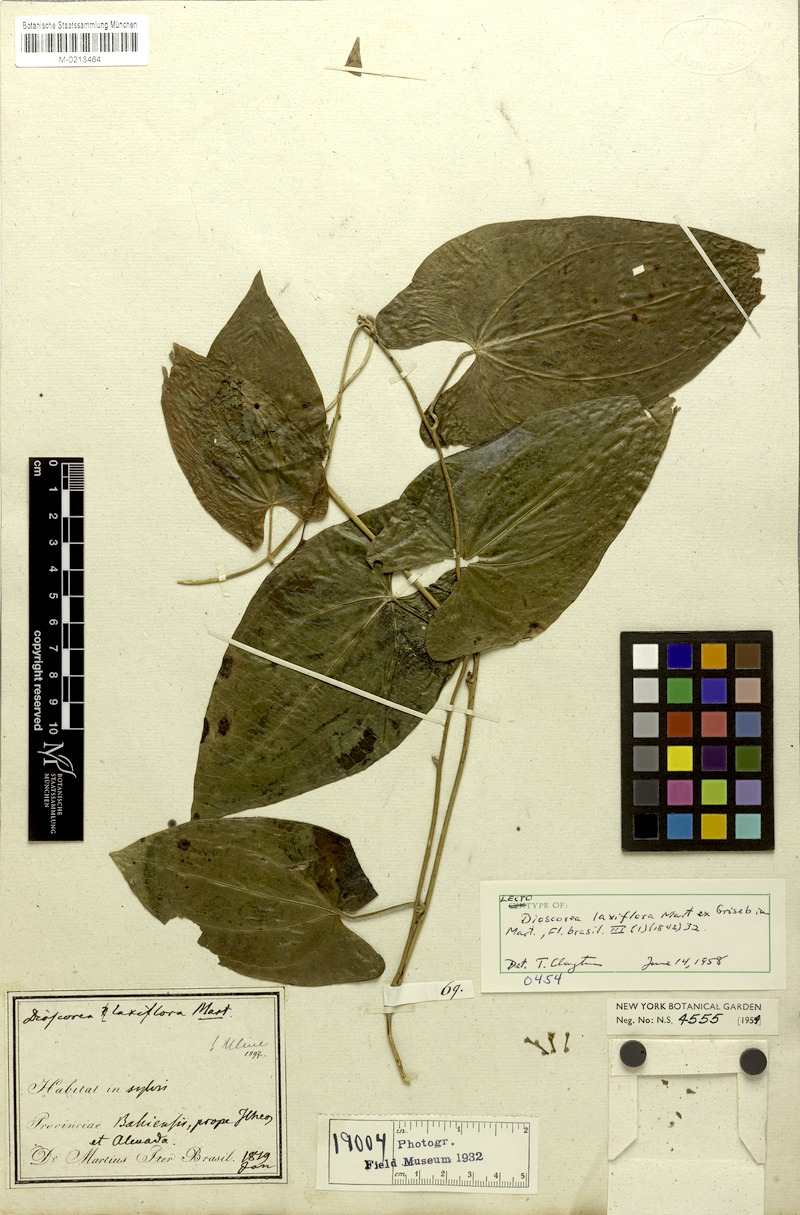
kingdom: Plantae
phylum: Tracheophyta
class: Liliopsida
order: Dioscoreales
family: Dioscoreaceae
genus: Dioscorea
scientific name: Dioscorea laxiflora
